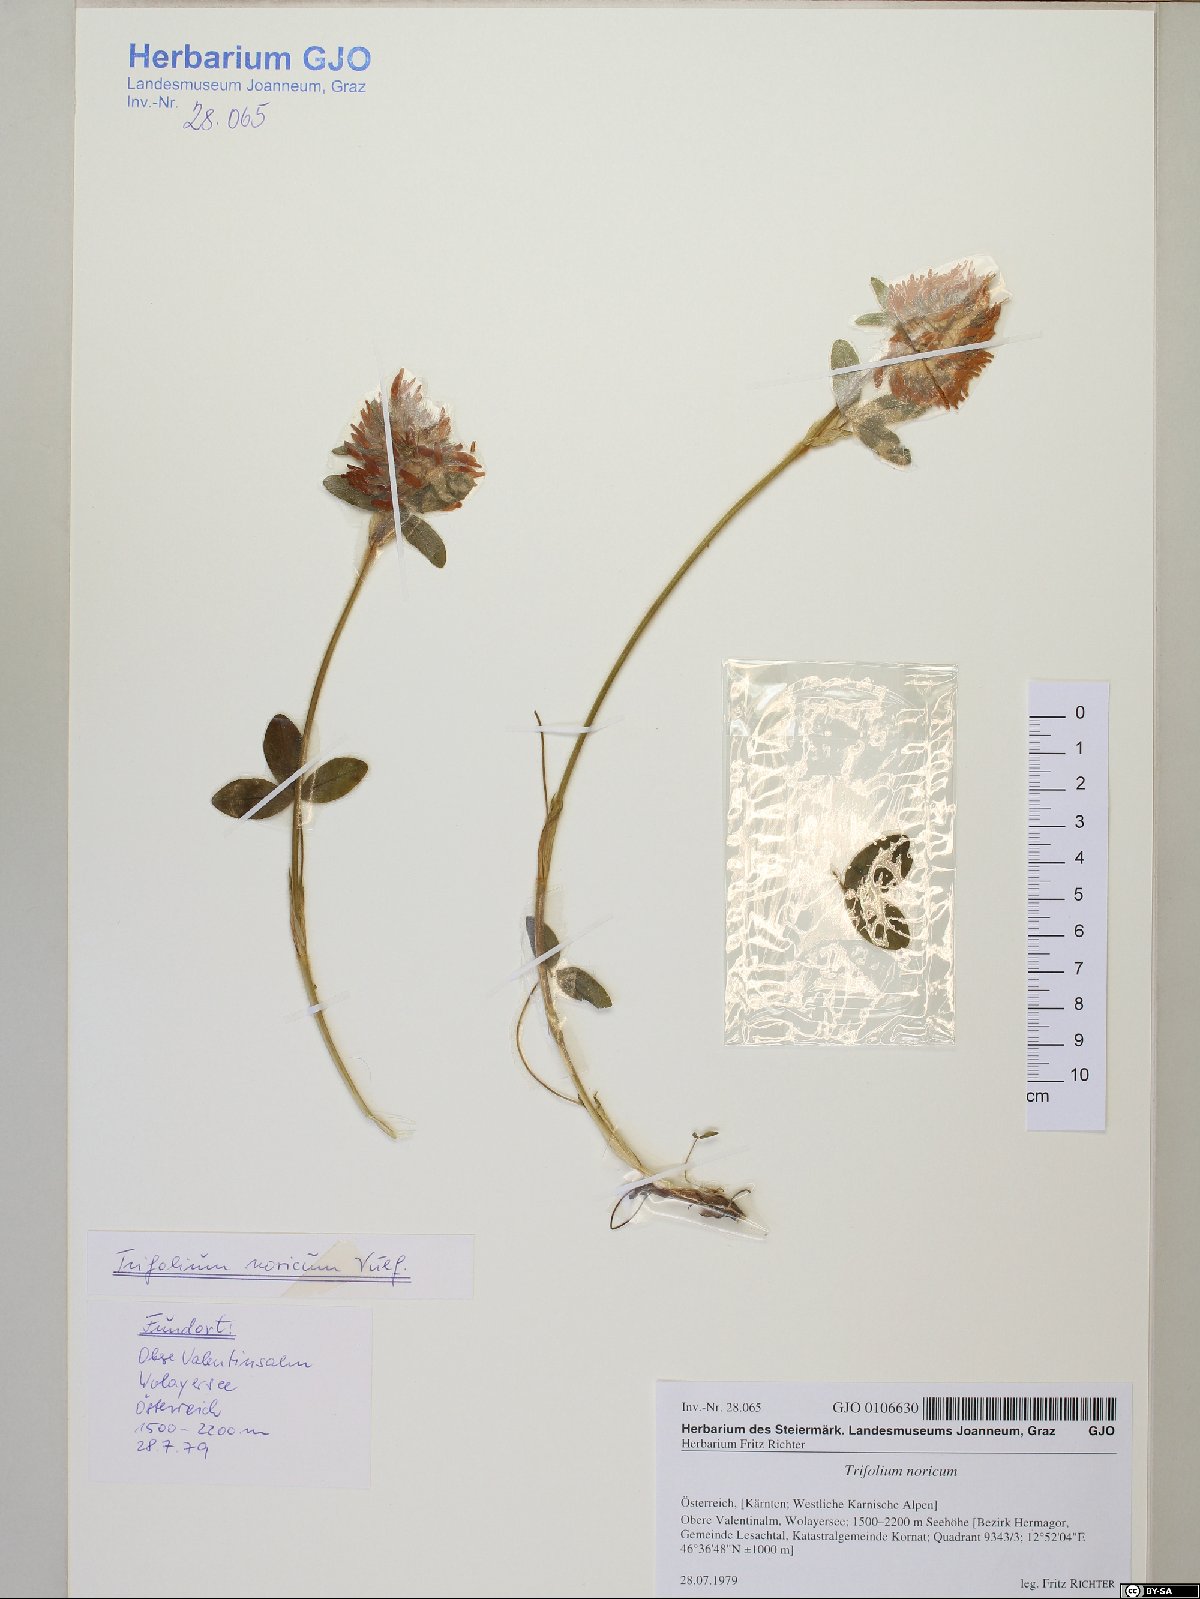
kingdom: Plantae
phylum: Tracheophyta
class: Magnoliopsida
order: Fabales
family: Fabaceae
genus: Trifolium
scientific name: Trifolium noricum
